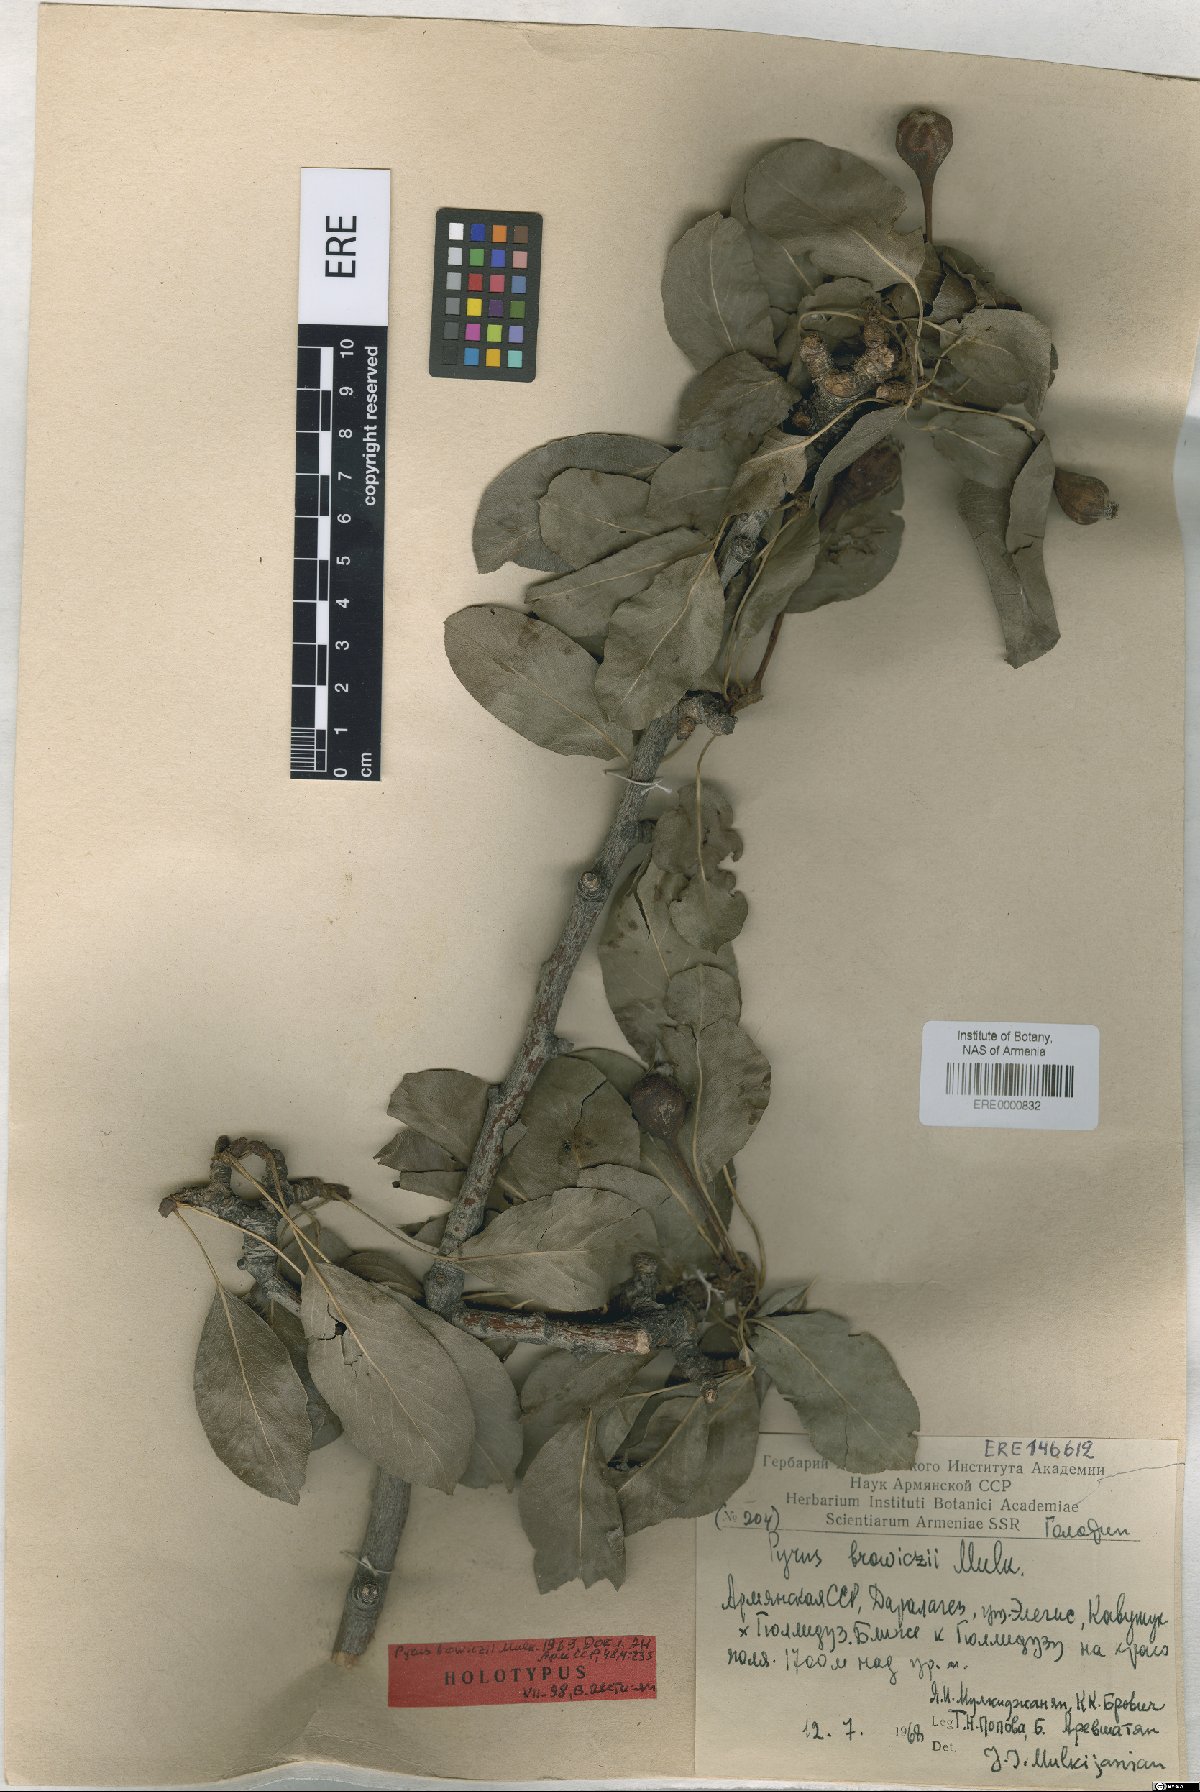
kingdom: Plantae
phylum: Tracheophyta
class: Magnoliopsida
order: Rosales
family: Rosaceae
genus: Pyrus
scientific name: Pyrus browiczii
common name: Brovich's pear
